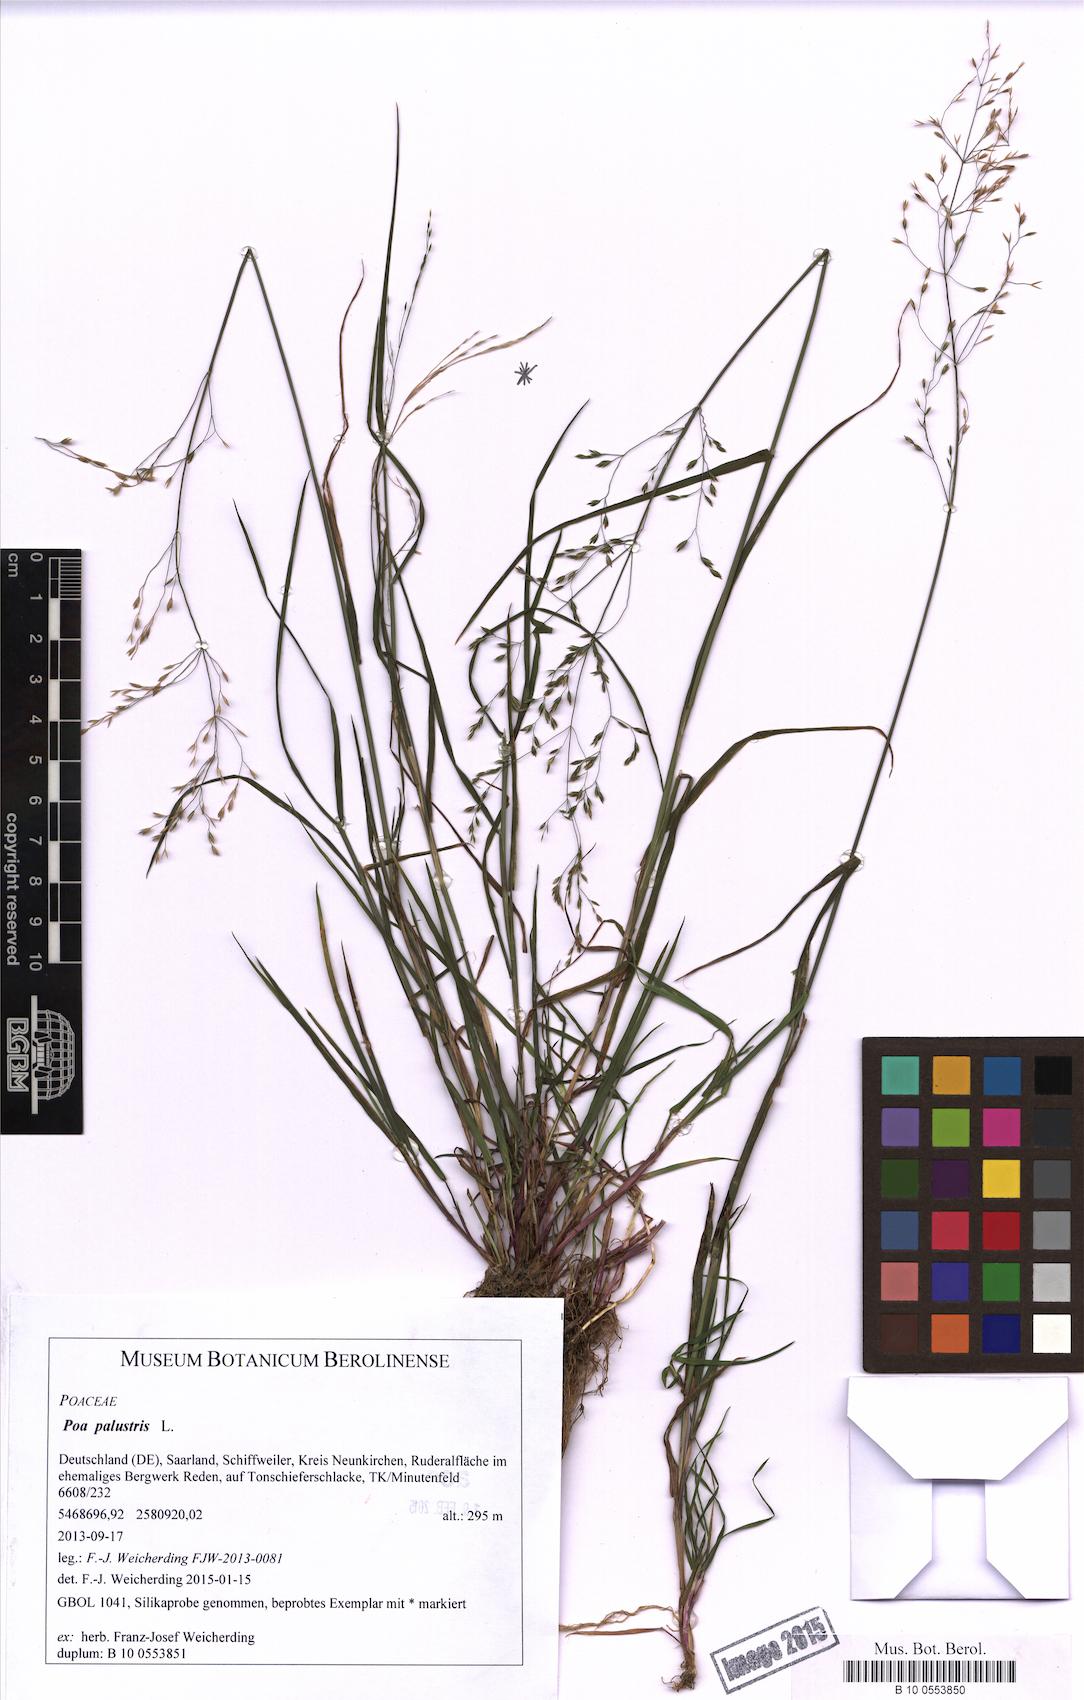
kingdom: Plantae
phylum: Tracheophyta
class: Liliopsida
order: Poales
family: Poaceae
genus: Poa
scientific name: Poa palustris
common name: Swamp meadow-grass
